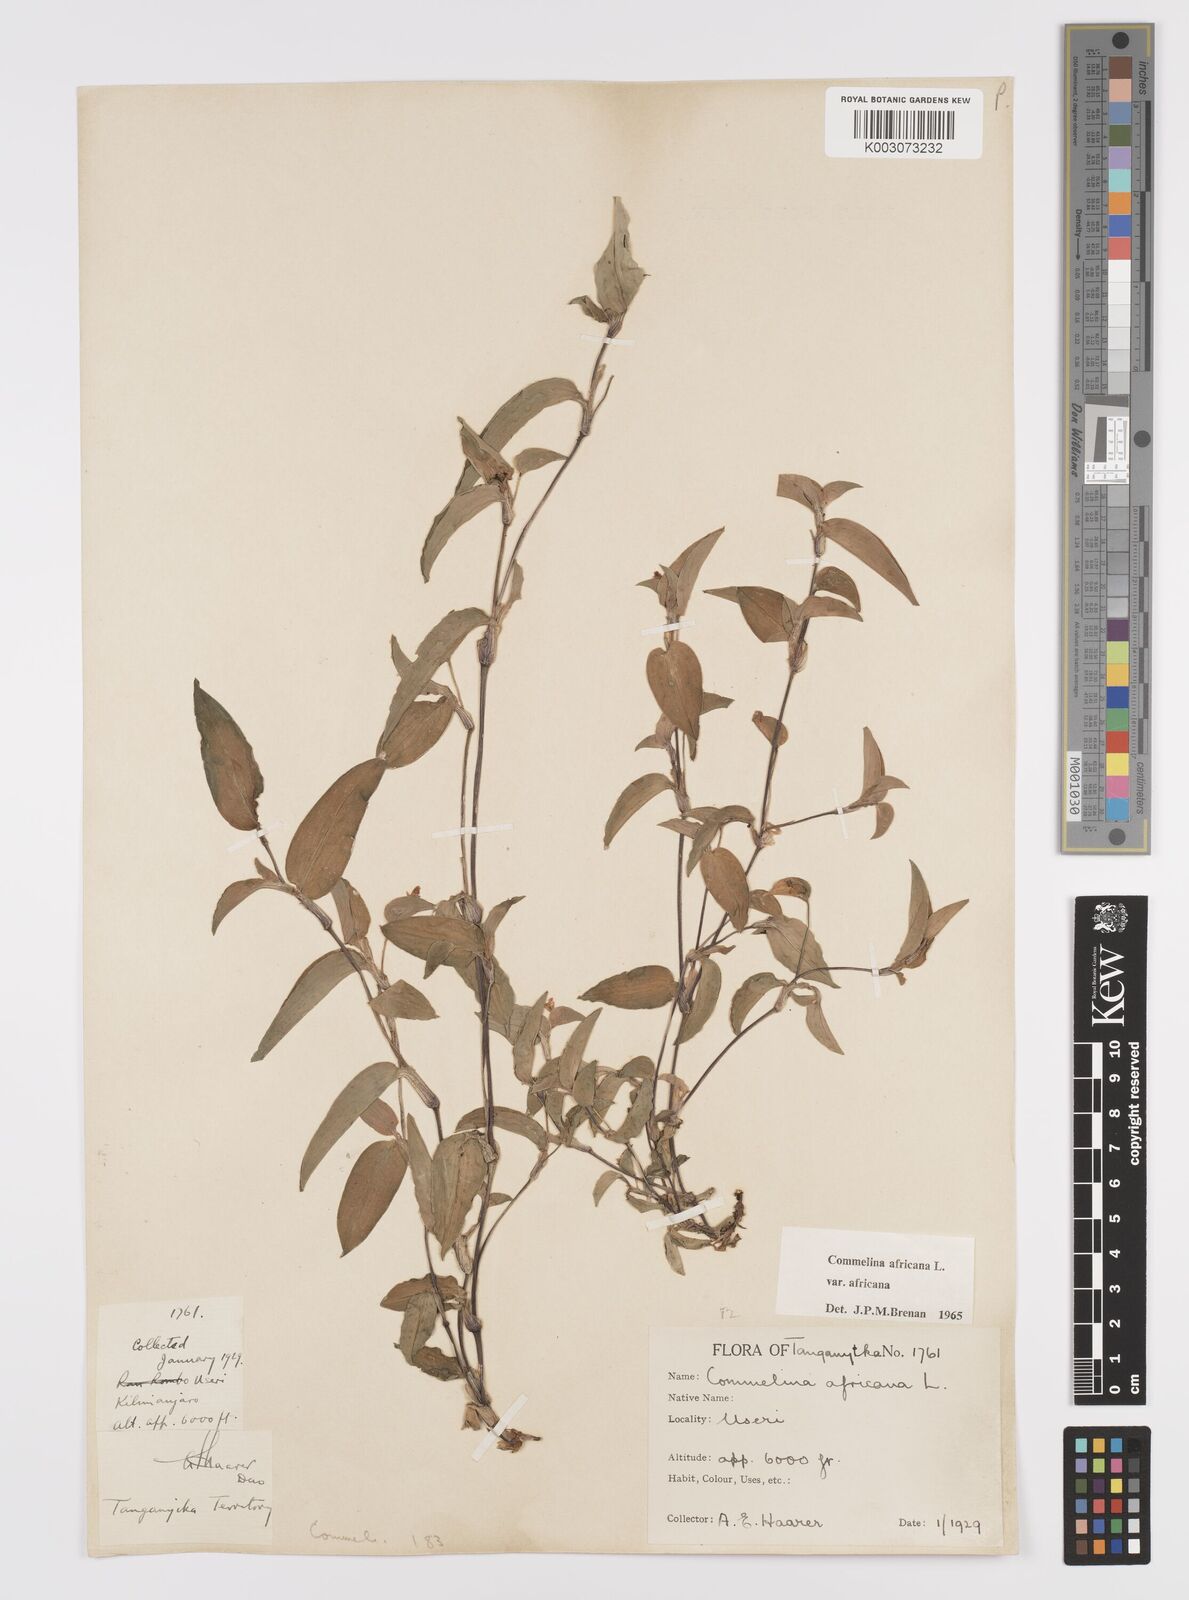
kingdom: Plantae
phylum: Tracheophyta
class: Liliopsida
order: Commelinales
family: Commelinaceae
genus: Commelina
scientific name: Commelina africana
